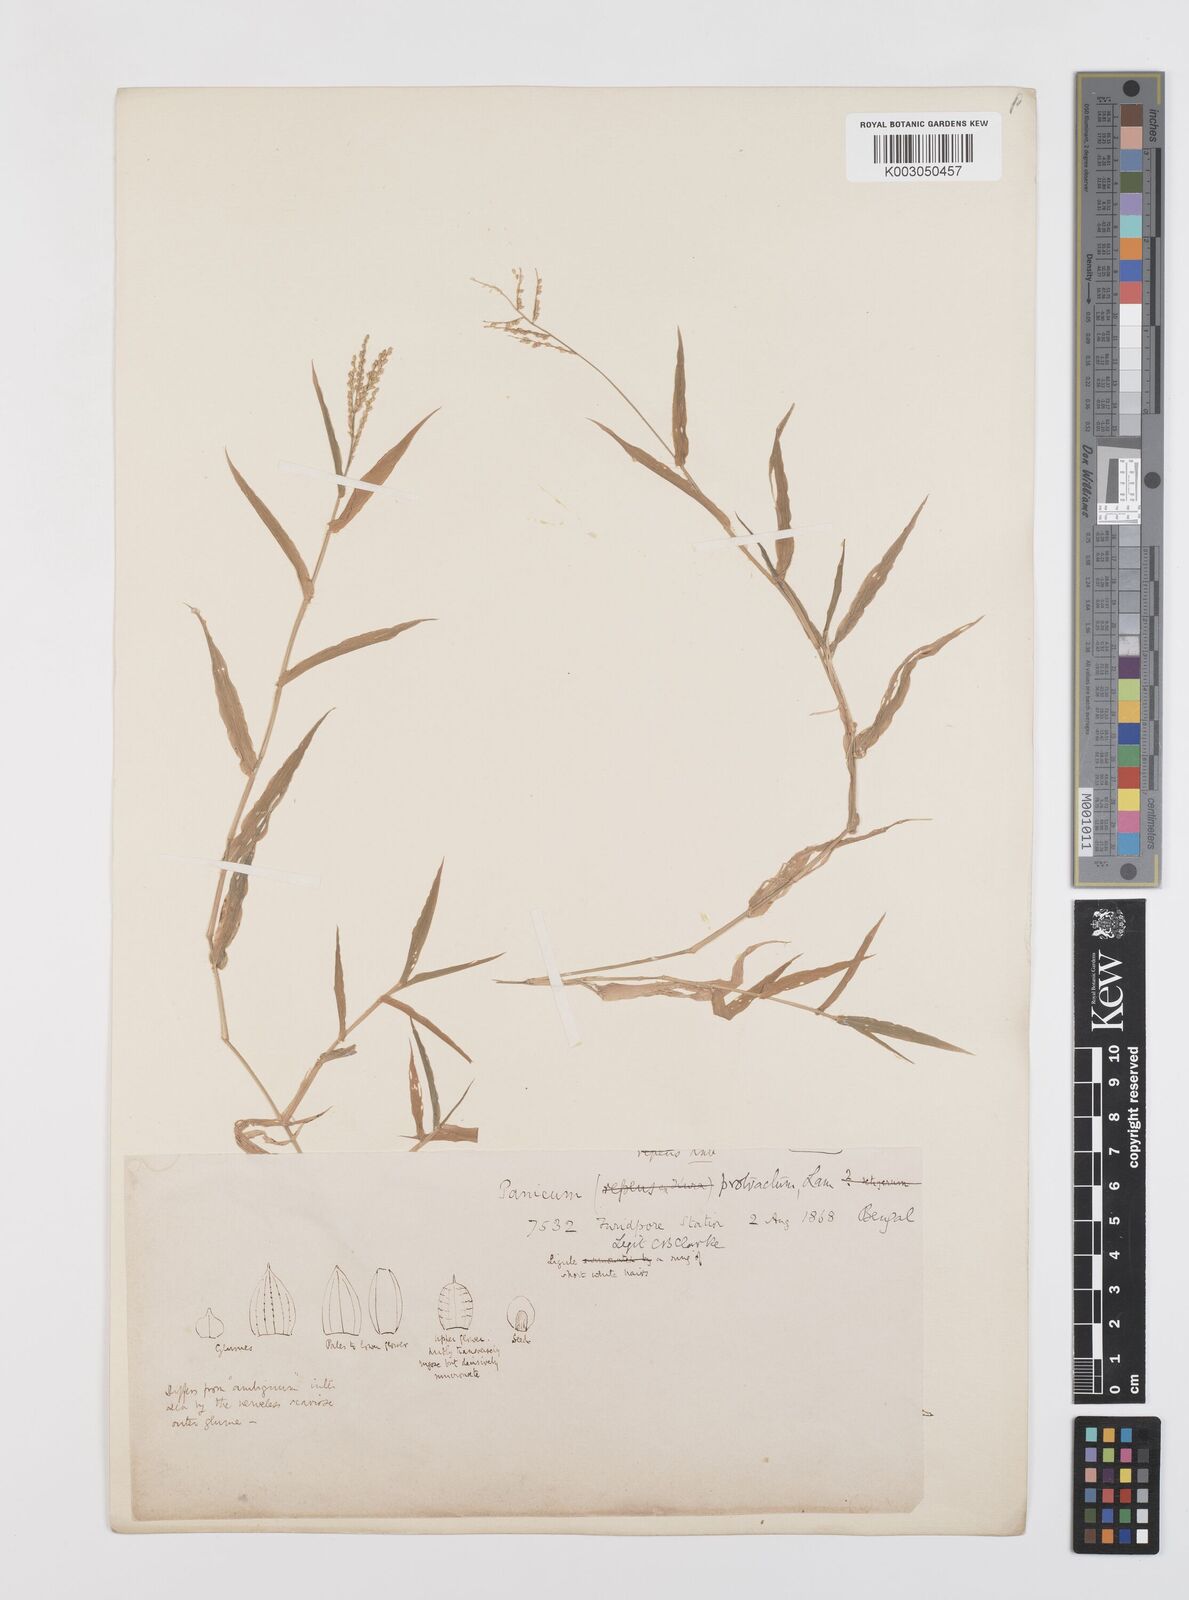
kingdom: Plantae
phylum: Tracheophyta
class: Liliopsida
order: Poales
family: Poaceae
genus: Urochloa
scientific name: Urochloa reptans
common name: Sprawling signalgrass
